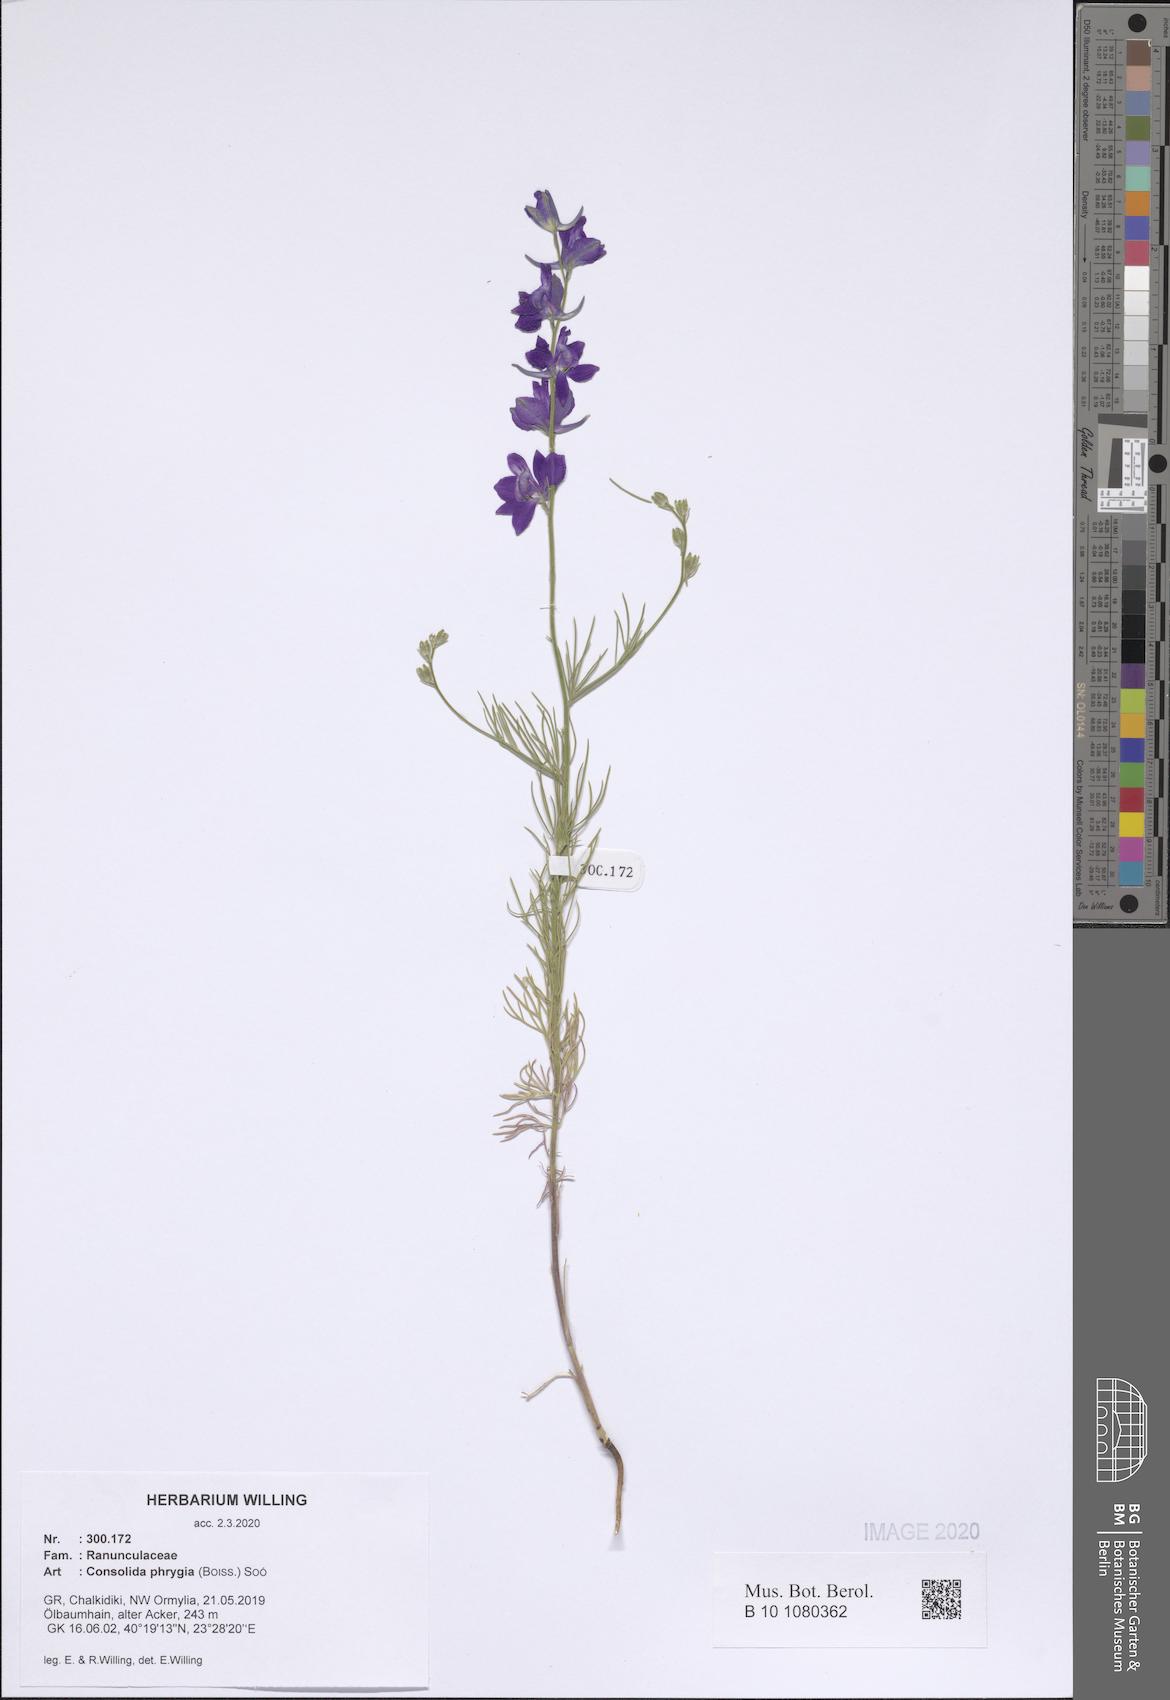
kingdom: Plantae
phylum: Tracheophyta
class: Magnoliopsida
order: Ranunculales
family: Ranunculaceae
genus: Delphinium
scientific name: Delphinium phrygium
